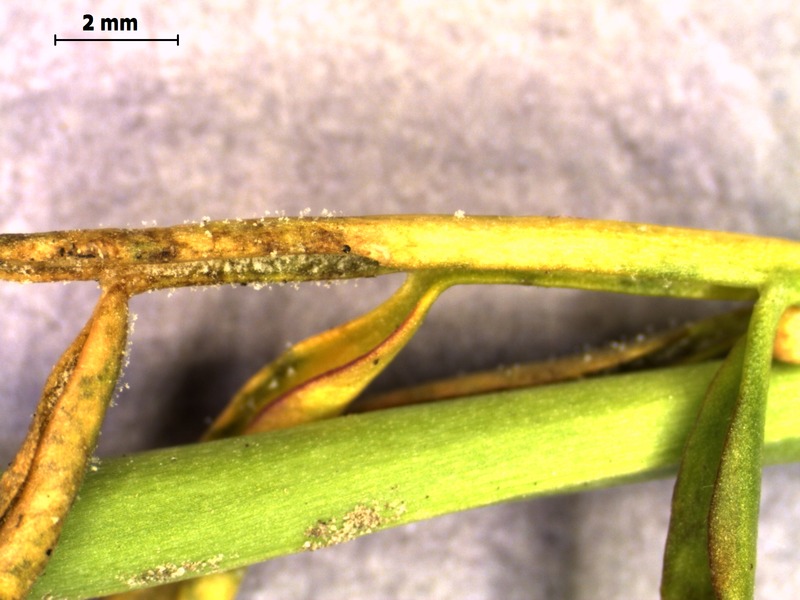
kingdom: Chromista
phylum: Oomycota
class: Peronosporea
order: Peronosporales
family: Peronosporaceae
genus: Hyaloperonospora
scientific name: Hyaloperonospora parasitica
